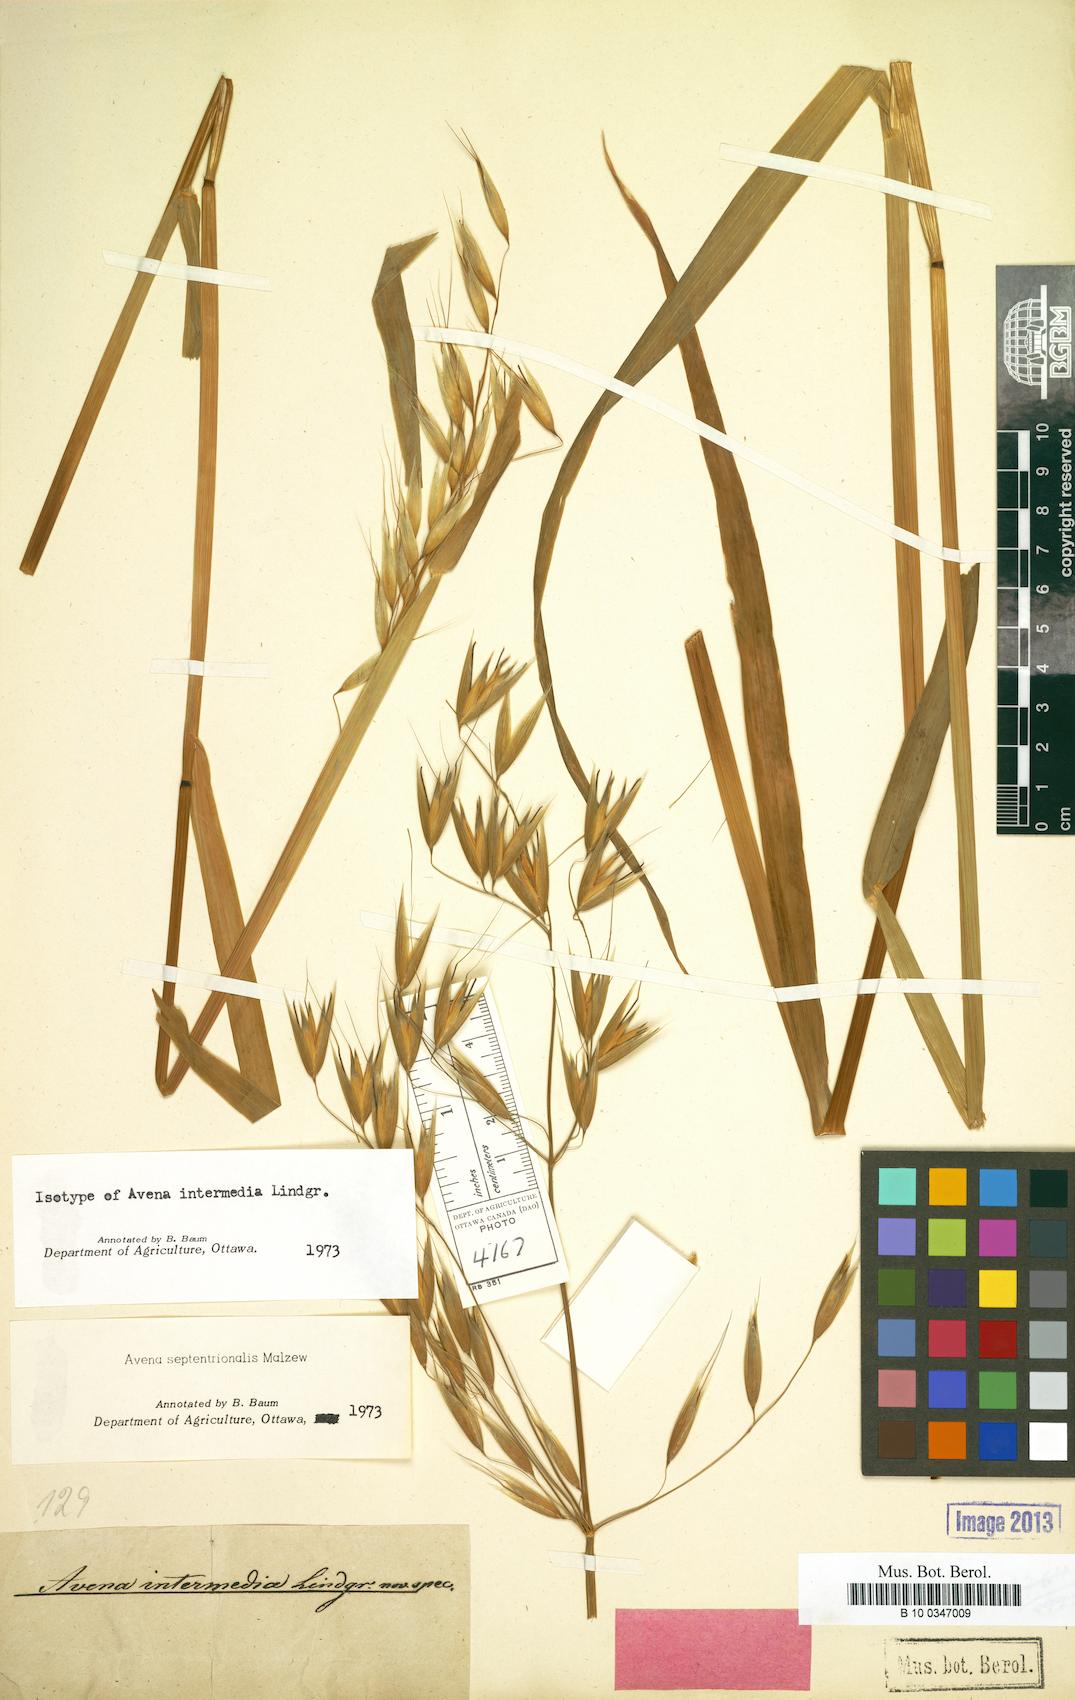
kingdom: Plantae
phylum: Tracheophyta
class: Liliopsida
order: Poales
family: Poaceae
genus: Avena
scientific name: Avena fatua
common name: Wild oat
